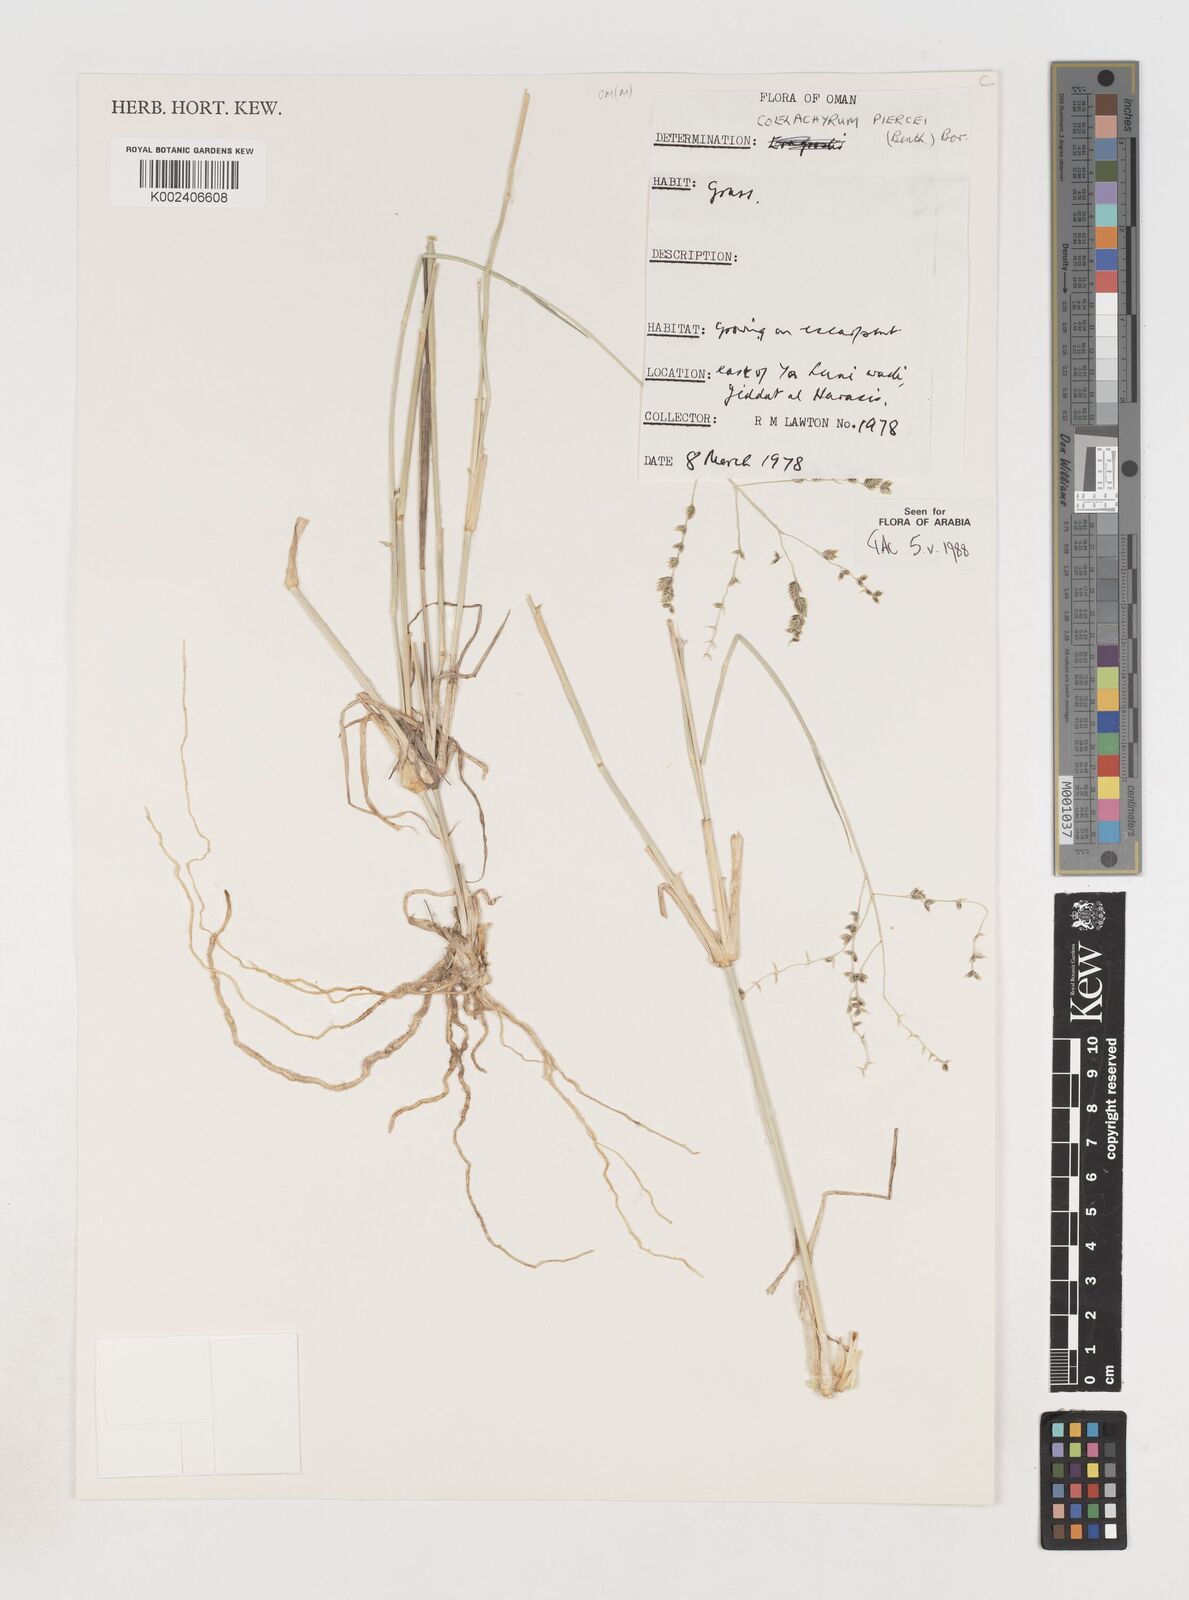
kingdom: Plantae
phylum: Tracheophyta
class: Liliopsida
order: Poales
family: Poaceae
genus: Coelachyrum
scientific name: Coelachyrum piercei
